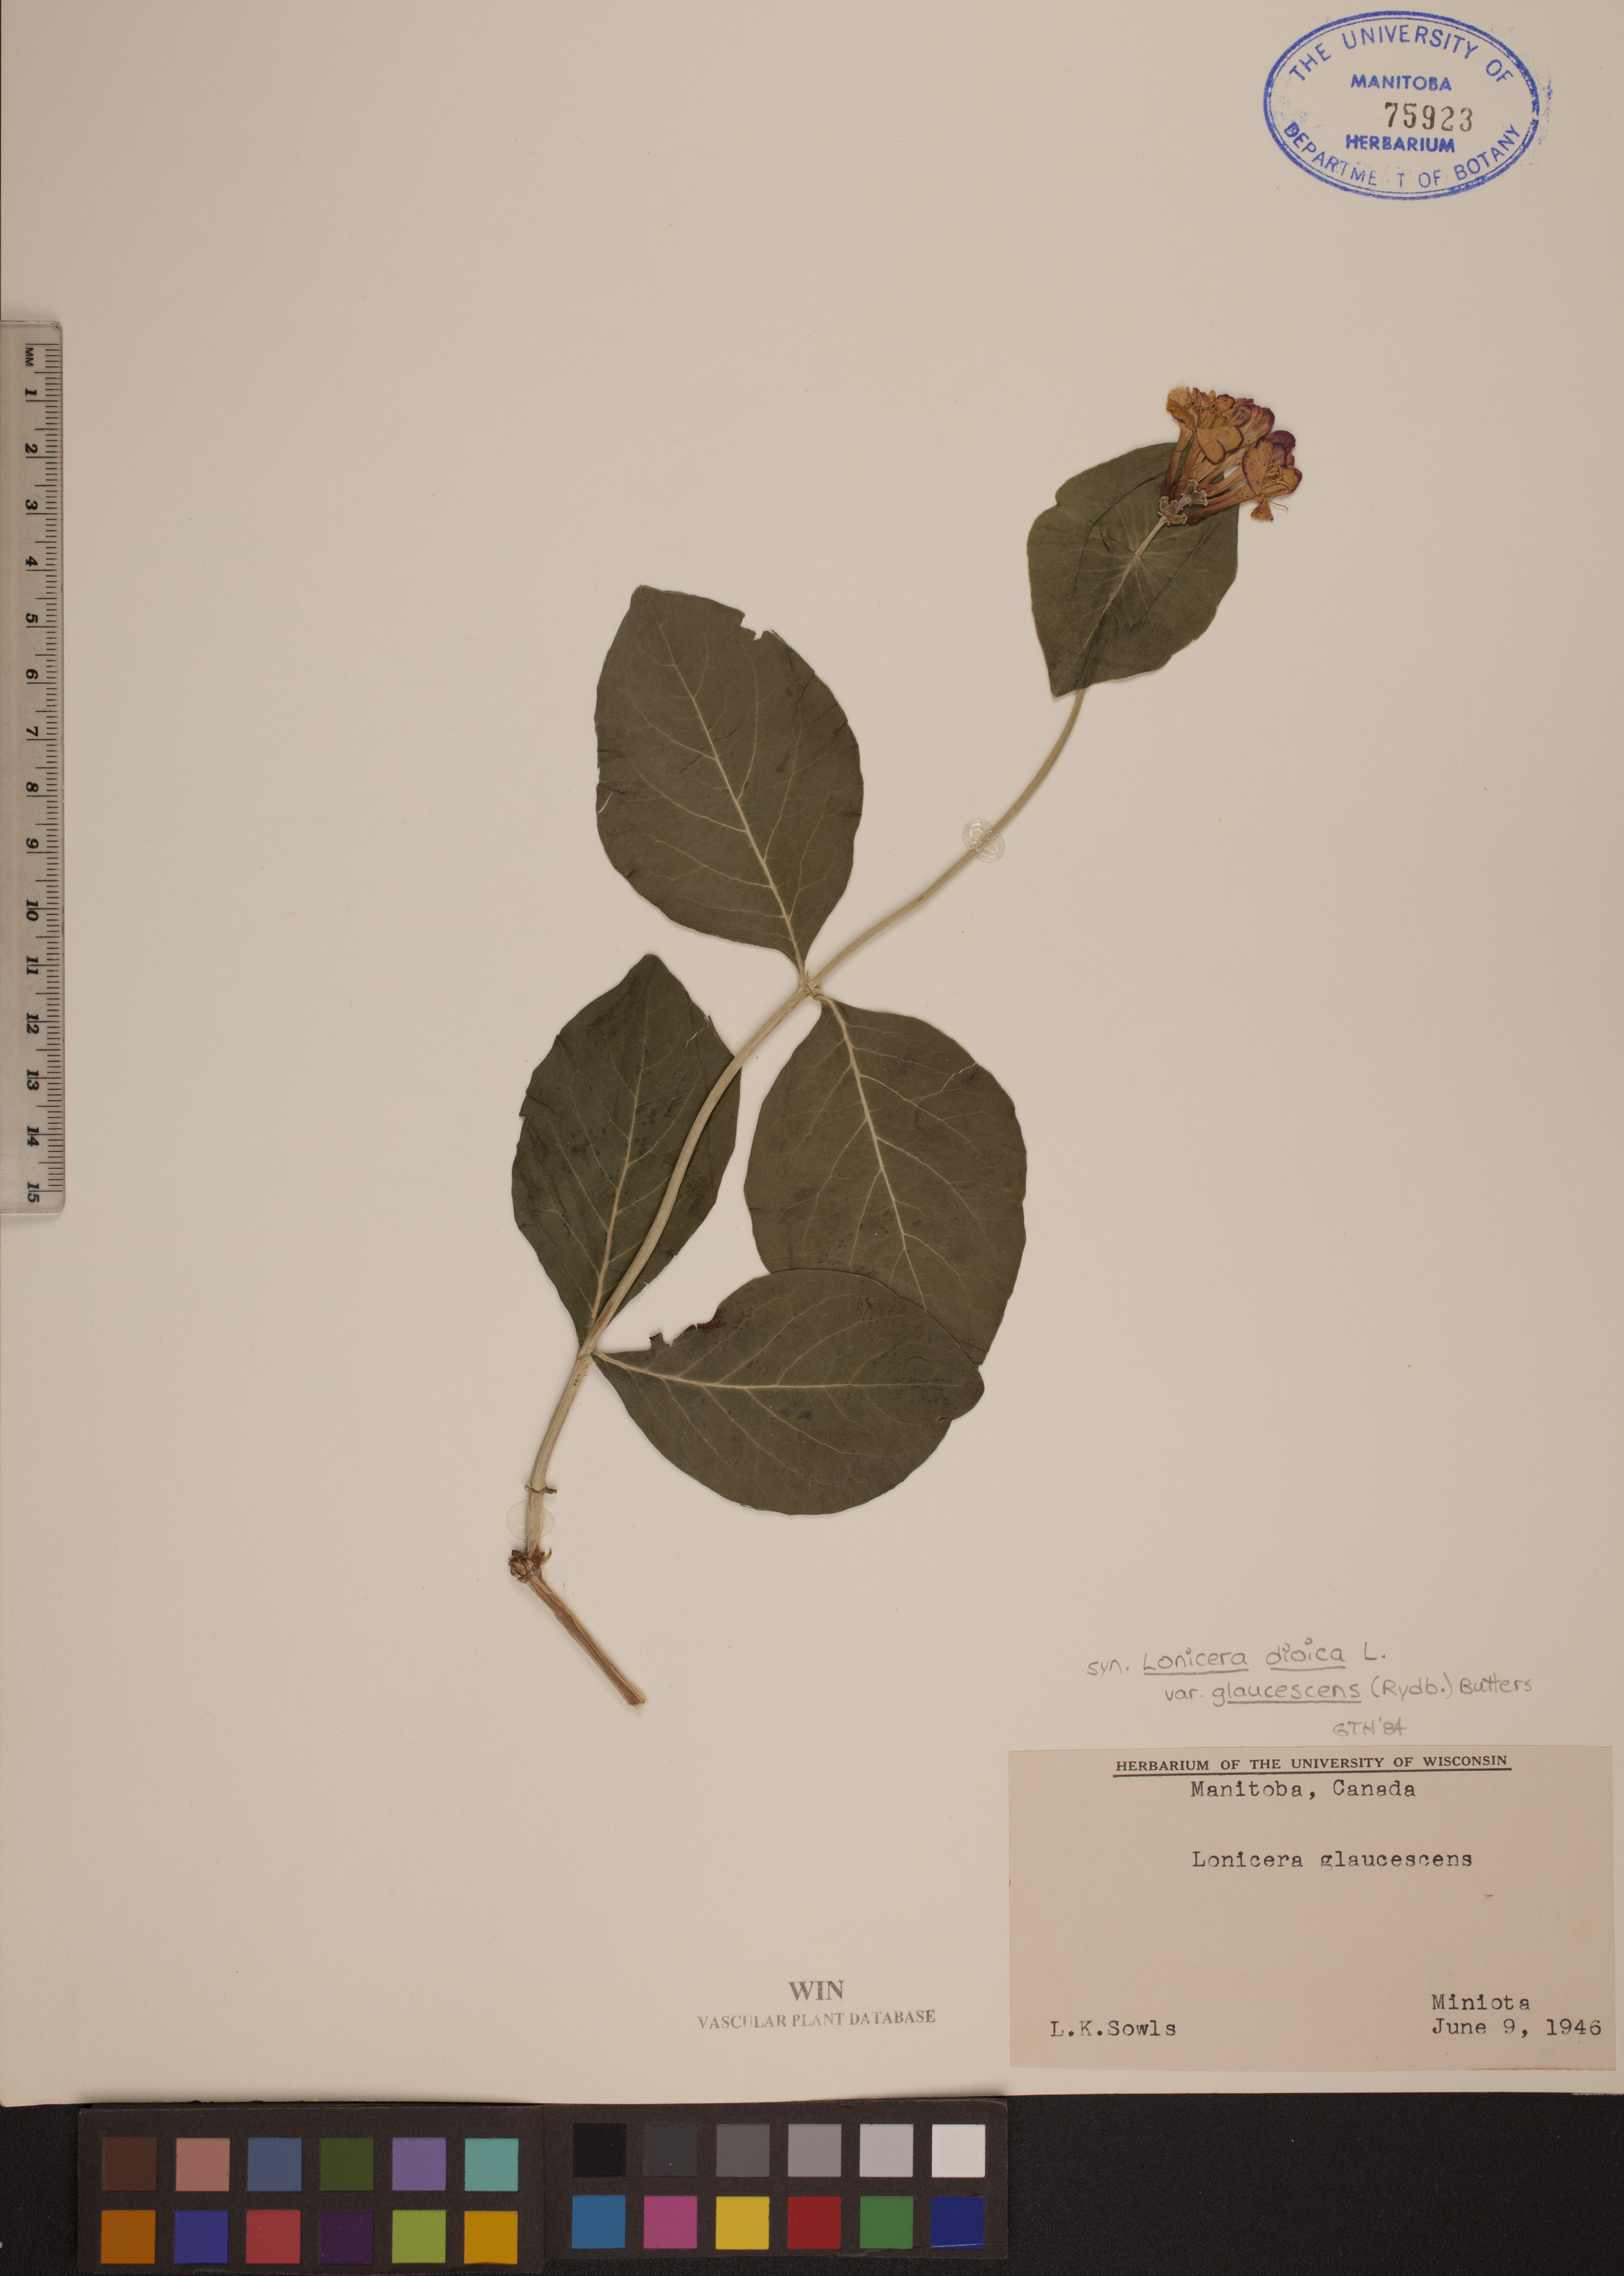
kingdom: Plantae
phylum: Tracheophyta
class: Magnoliopsida
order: Dipsacales
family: Caprifoliaceae
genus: Lonicera
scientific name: Lonicera dioica
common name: Limber honeysuckle
